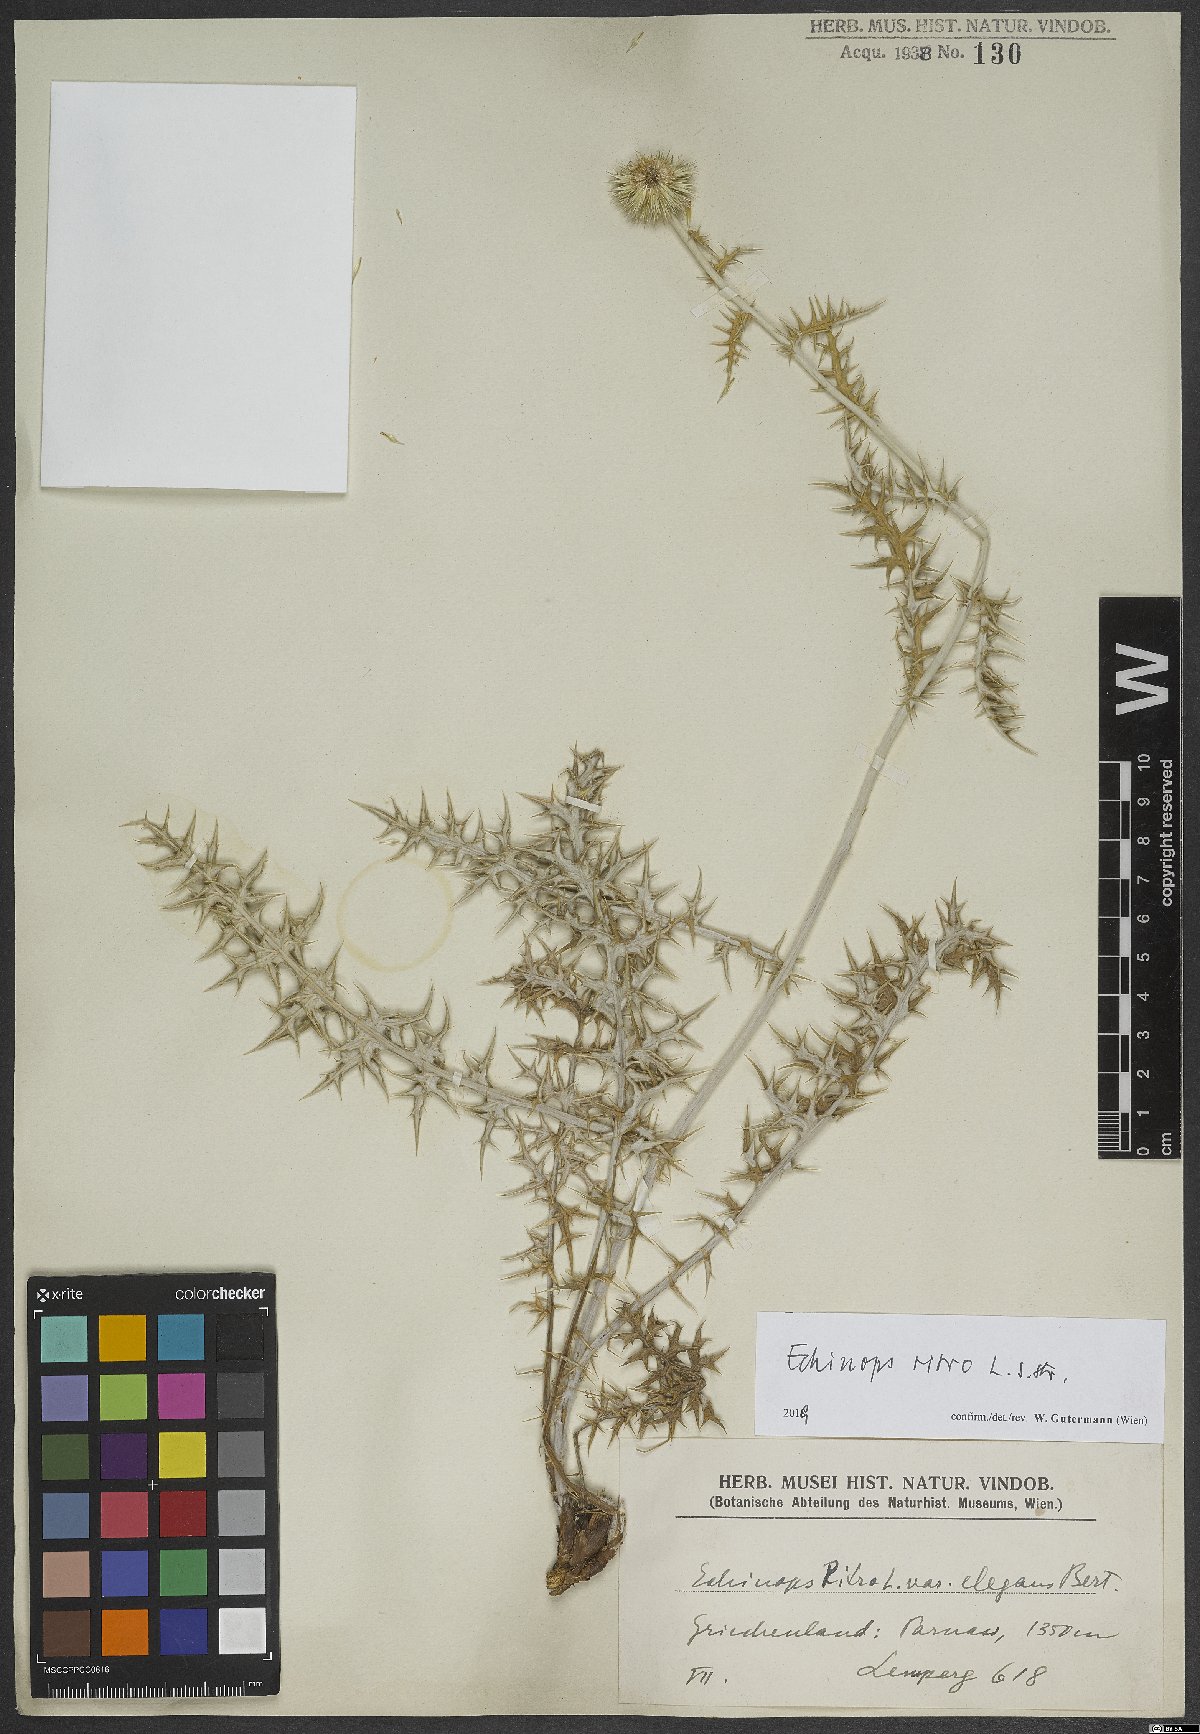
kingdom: Plantae
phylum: Tracheophyta
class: Magnoliopsida
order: Asterales
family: Asteraceae
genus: Echinops
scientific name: Echinops ritro
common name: Globe thistle
